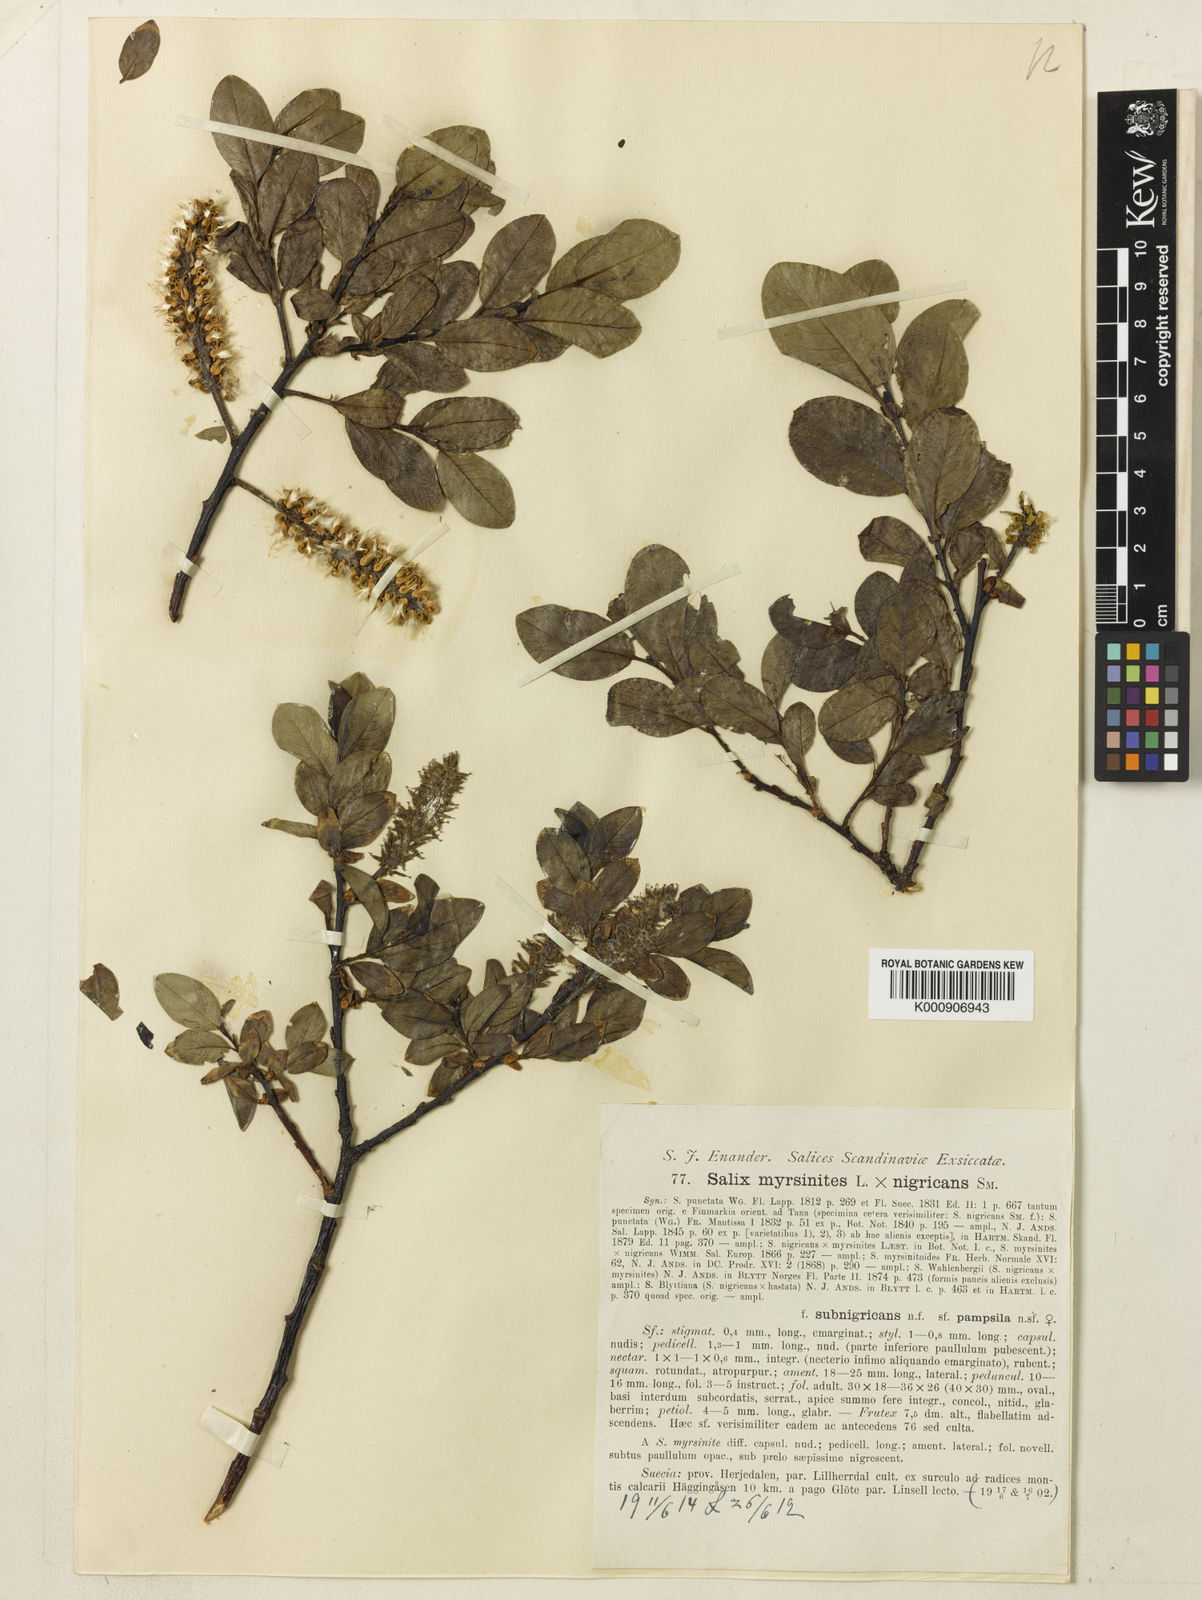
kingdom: Plantae
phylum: Tracheophyta
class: Magnoliopsida
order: Malpighiales
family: Salicaceae
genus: Salix
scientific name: Salix myrsinites
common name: Myrtle willow
